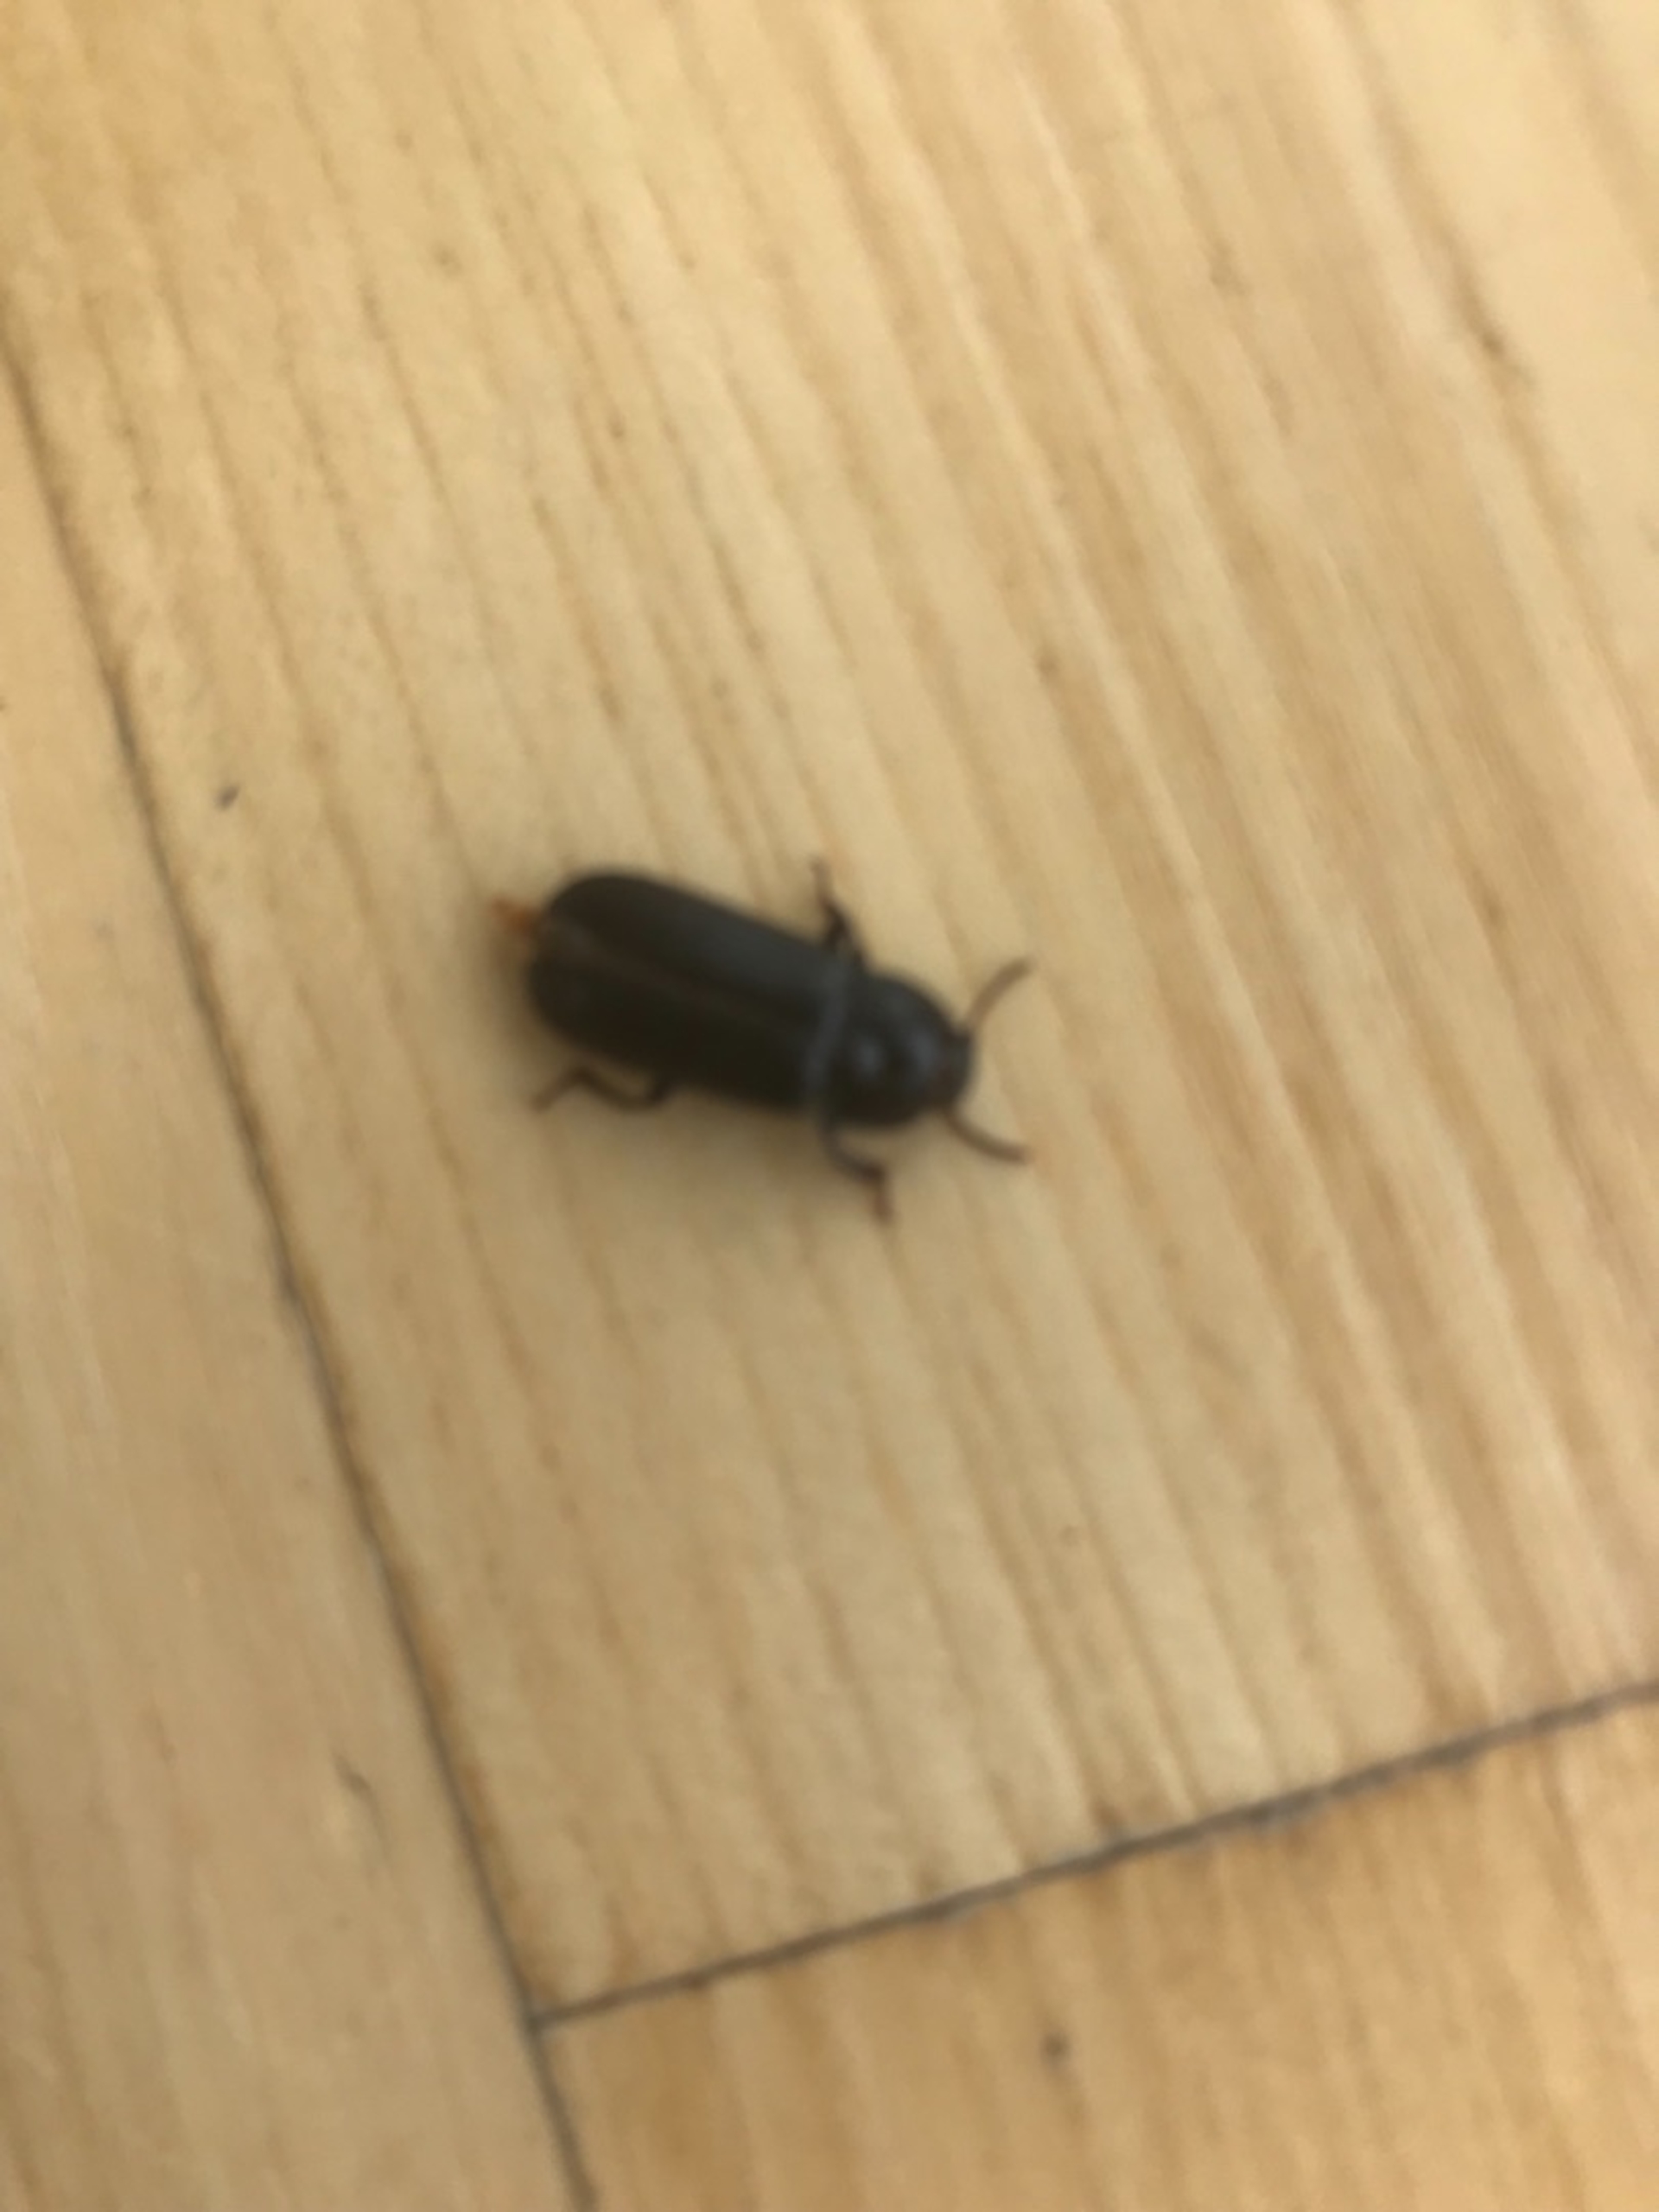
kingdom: Animalia
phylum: Arthropoda
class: Insecta
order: Coleoptera
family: Tenebrionidae
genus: Tenebrio
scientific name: Tenebrio molitor
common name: Melskrubbe
